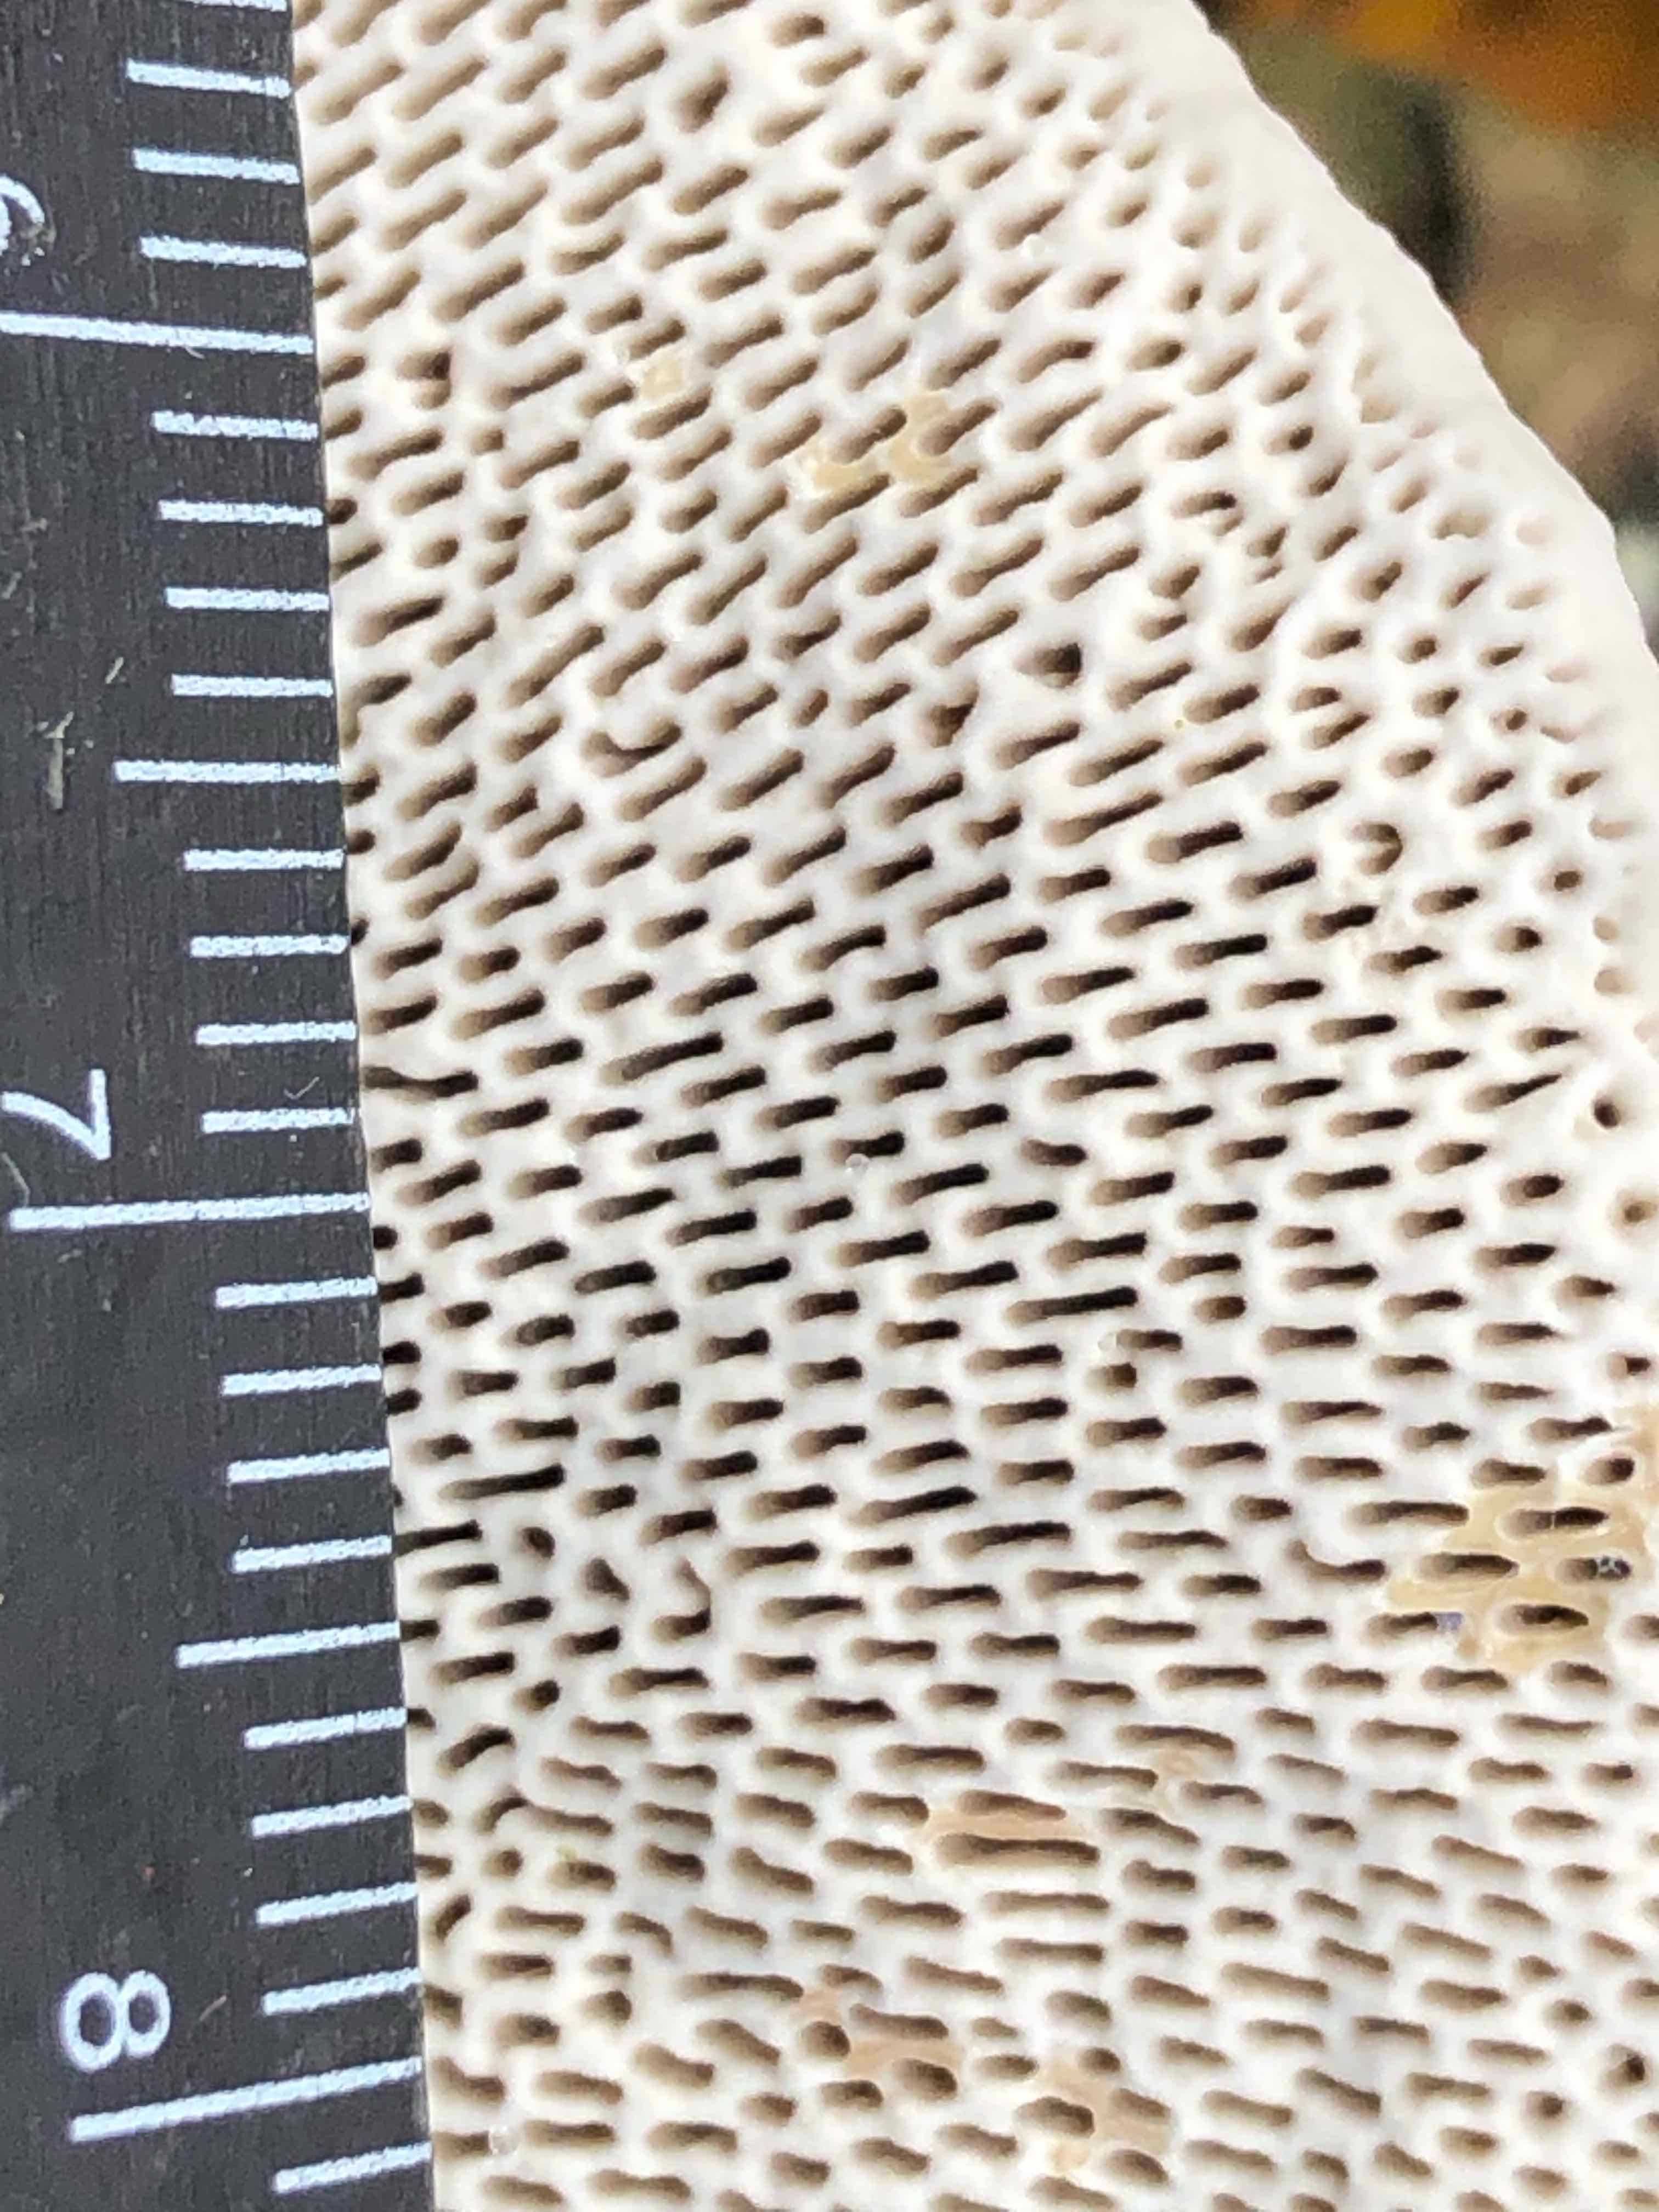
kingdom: Fungi
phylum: Basidiomycota
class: Agaricomycetes
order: Polyporales
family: Polyporaceae
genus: Daedaleopsis
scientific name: Daedaleopsis confragosa
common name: rødmende læderporesvamp
